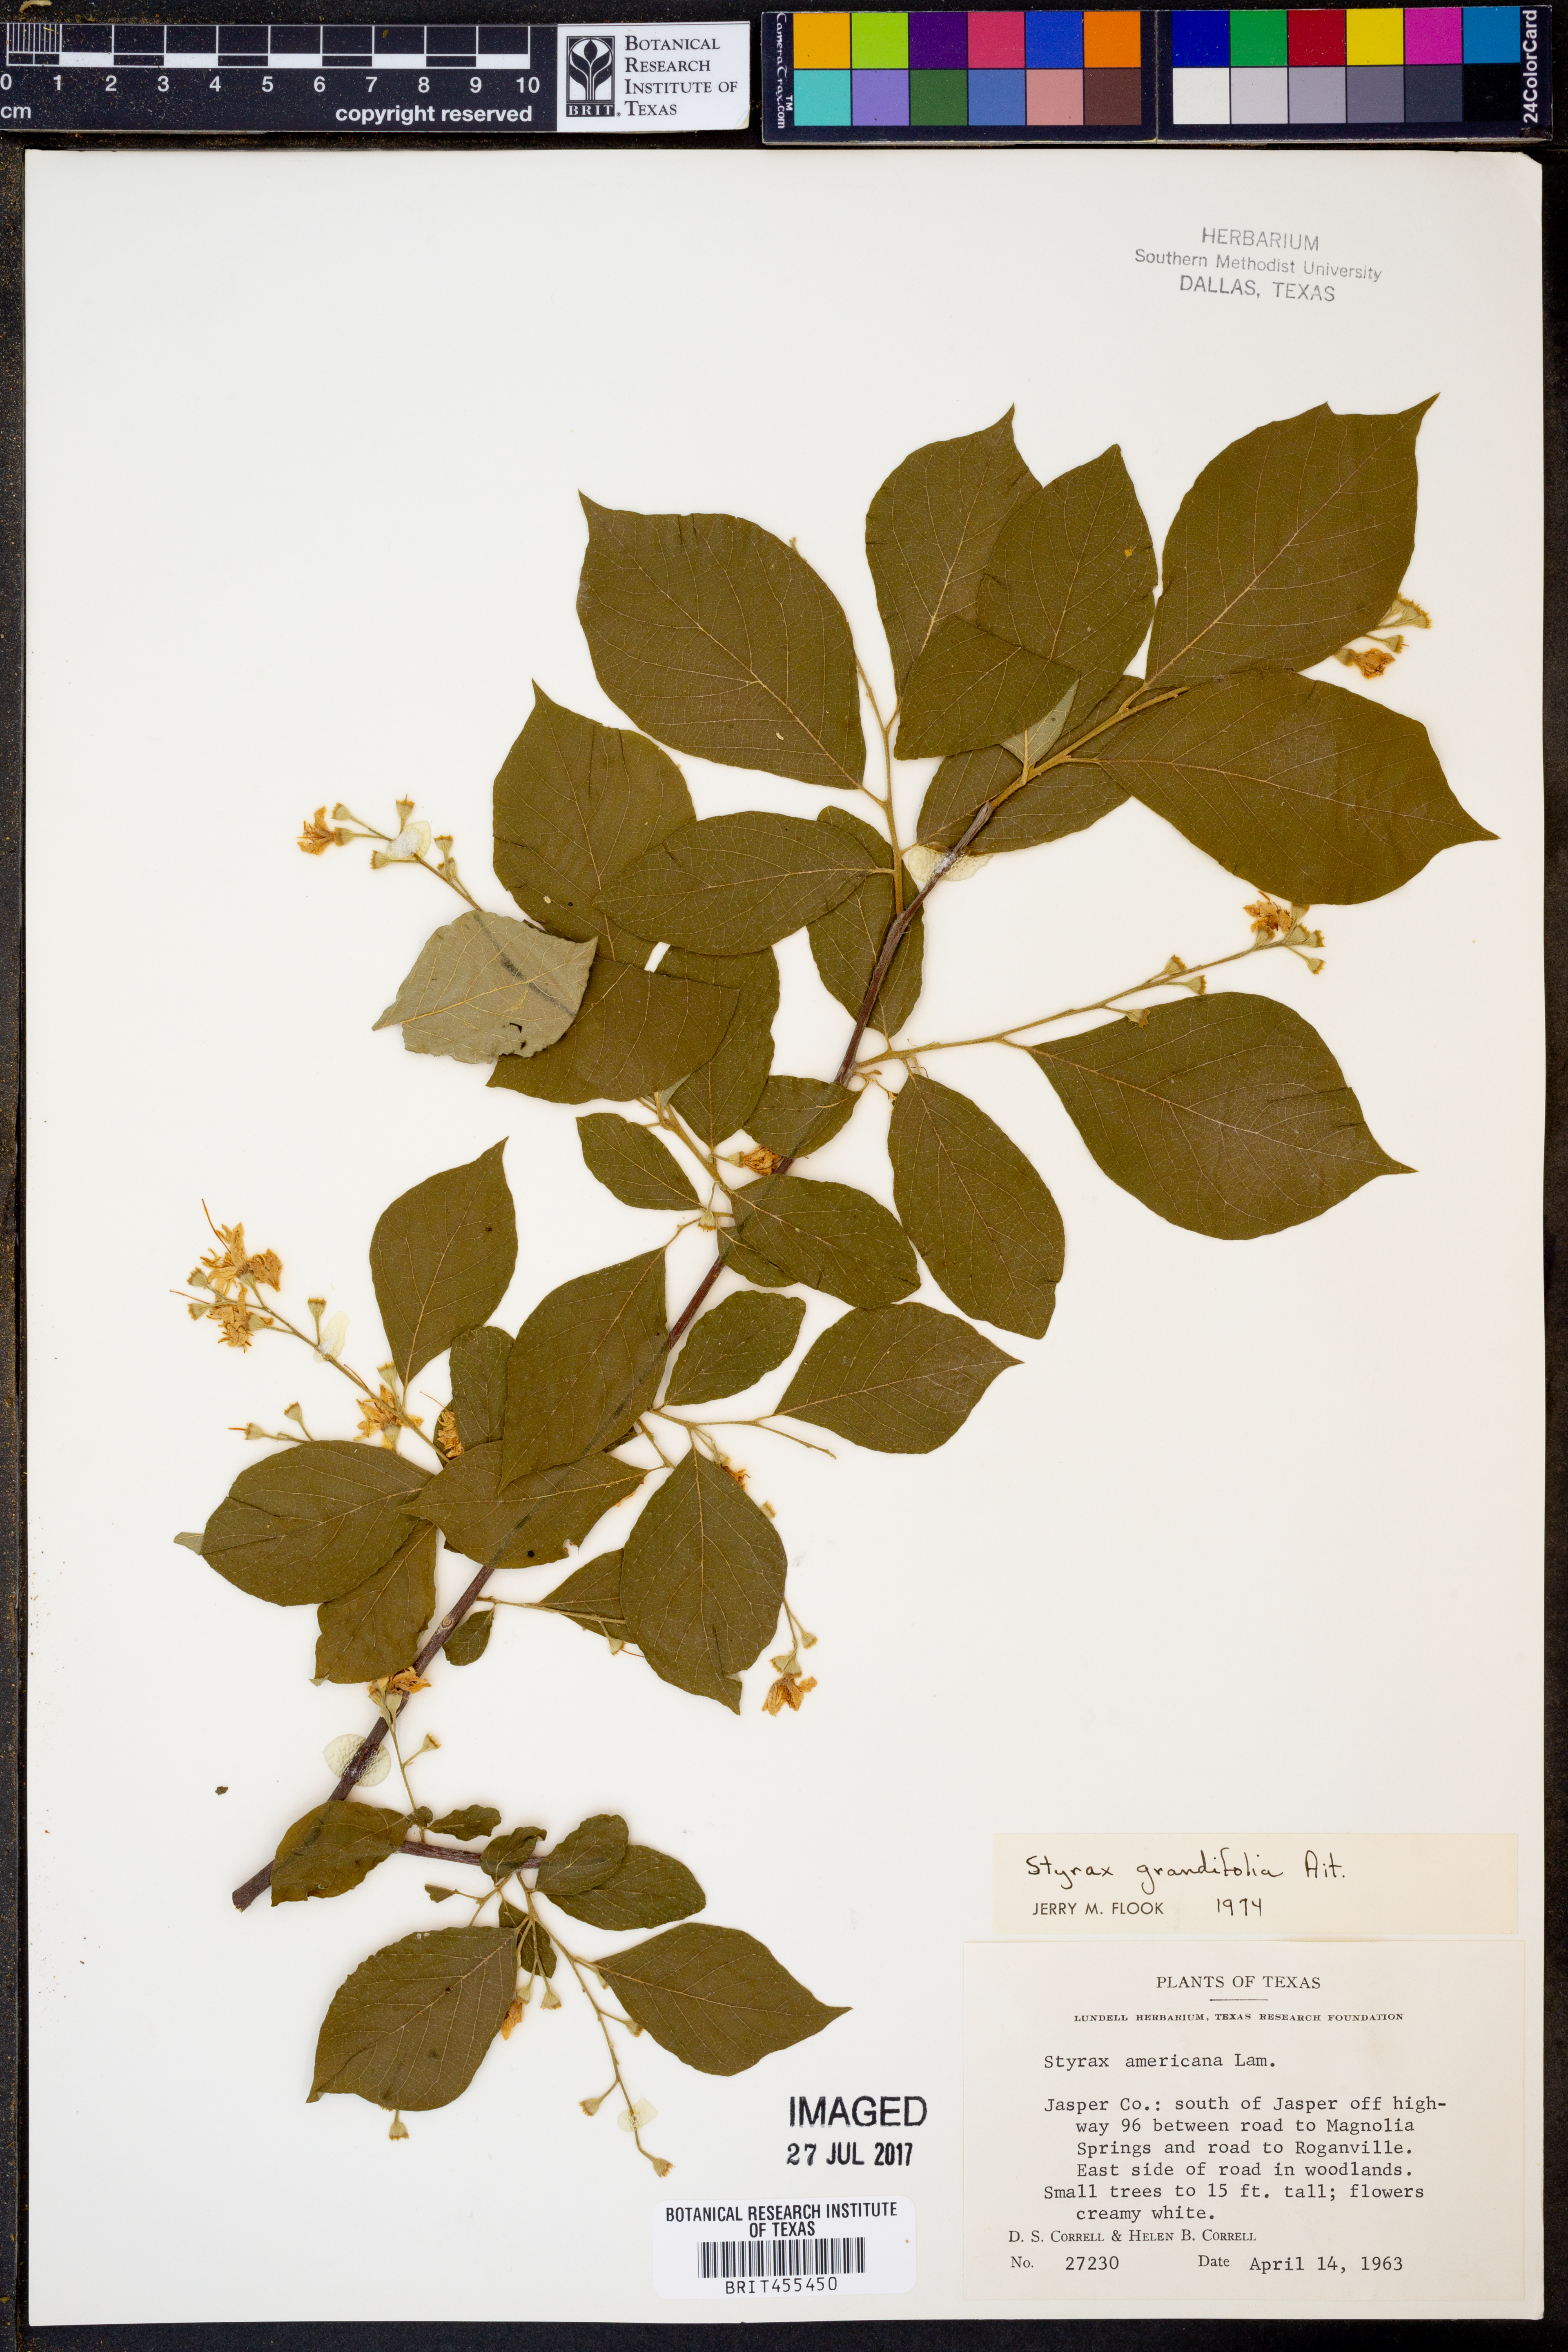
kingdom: Plantae
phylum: Tracheophyta
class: Magnoliopsida
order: Ericales
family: Styracaceae
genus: Styrax
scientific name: Styrax grandifolius
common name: Big-leaf snowbell
